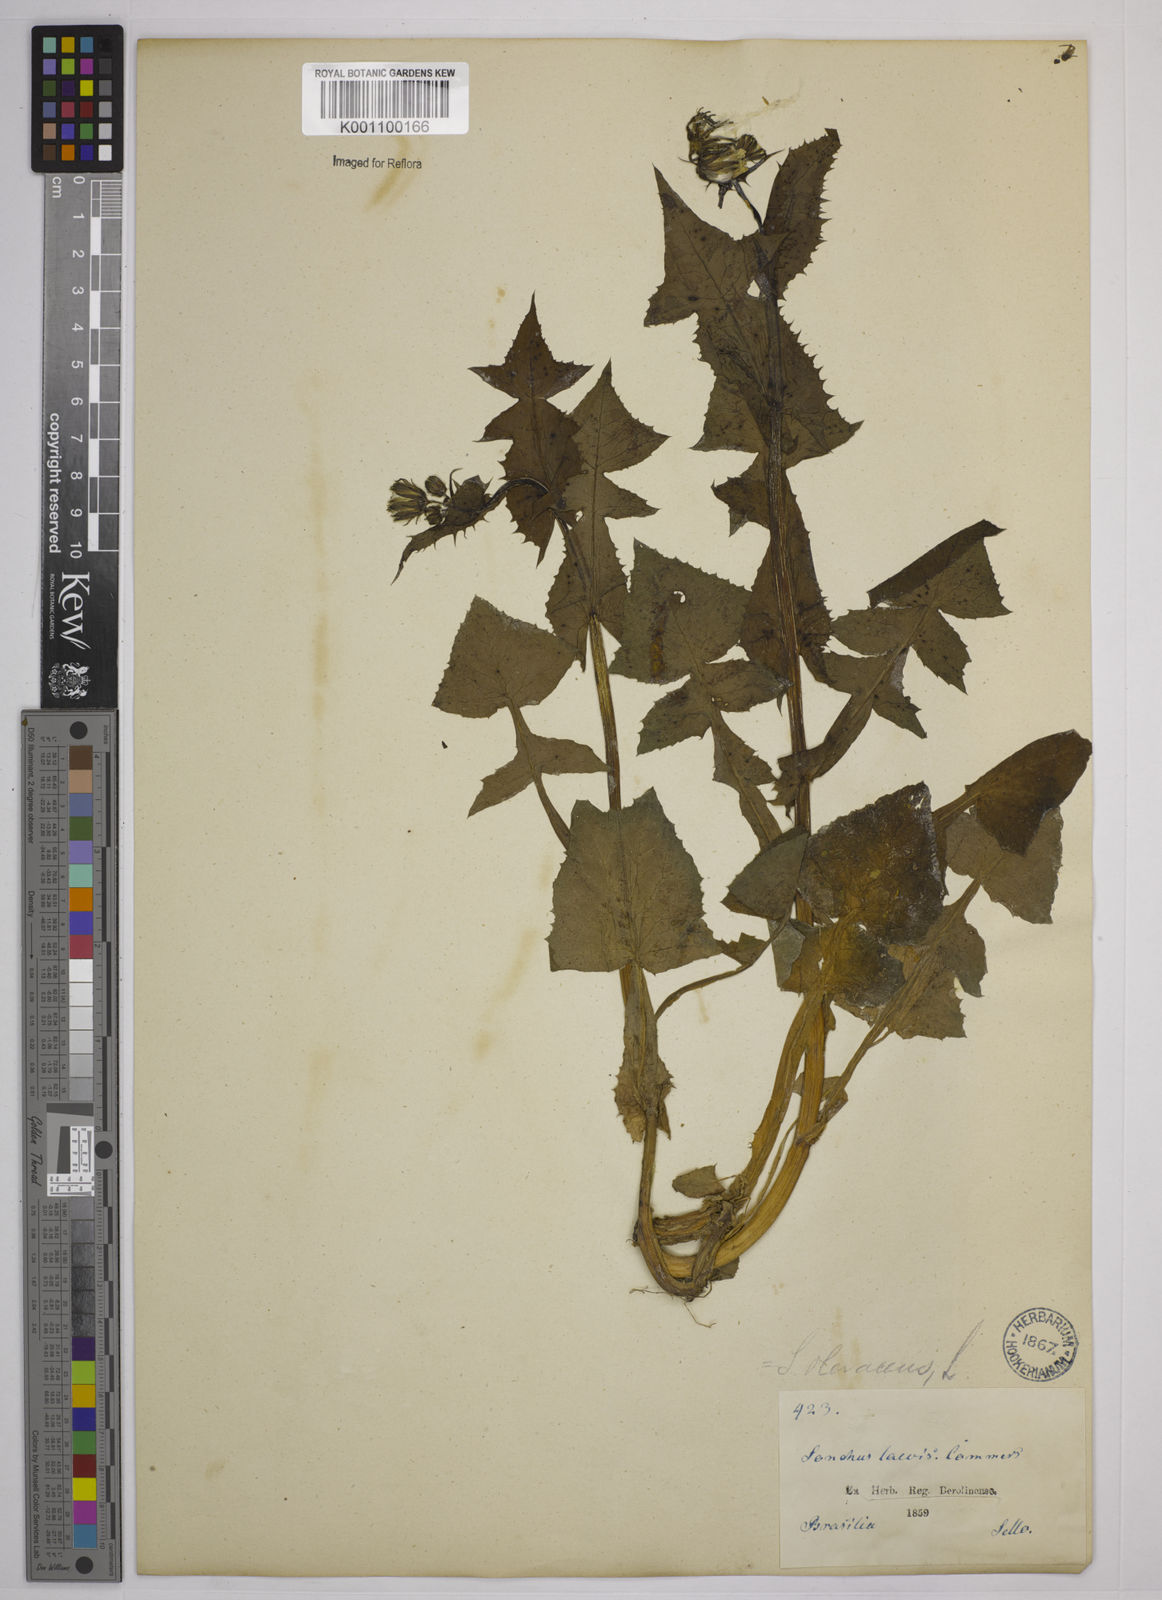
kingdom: Plantae
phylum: Tracheophyta
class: Magnoliopsida
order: Asterales
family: Asteraceae
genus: Sonchus
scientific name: Sonchus oleraceus
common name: Common sowthistle
